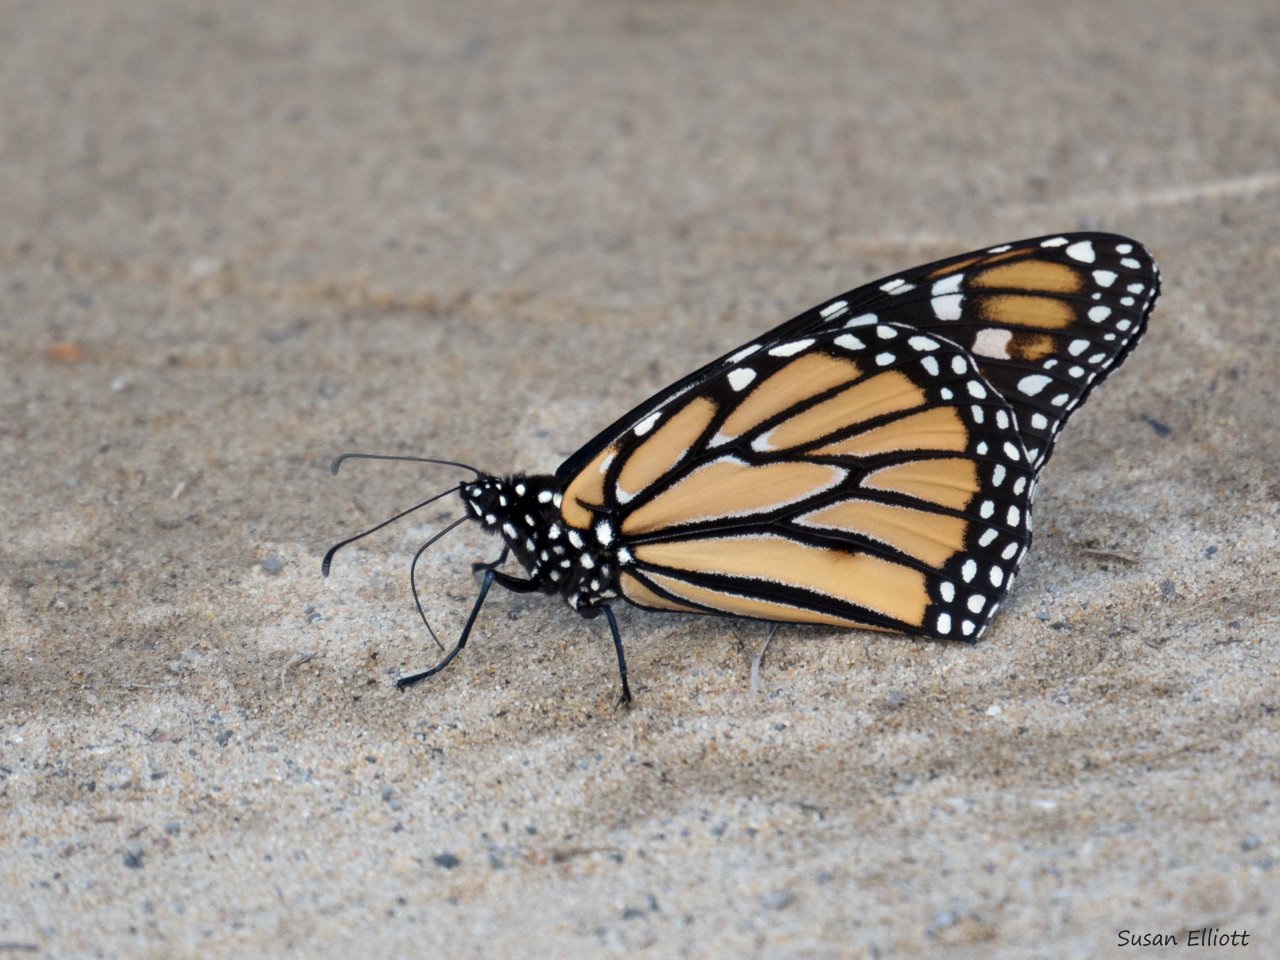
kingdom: Animalia
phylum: Arthropoda
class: Insecta
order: Lepidoptera
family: Nymphalidae
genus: Danaus
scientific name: Danaus plexippus
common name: Monarch
